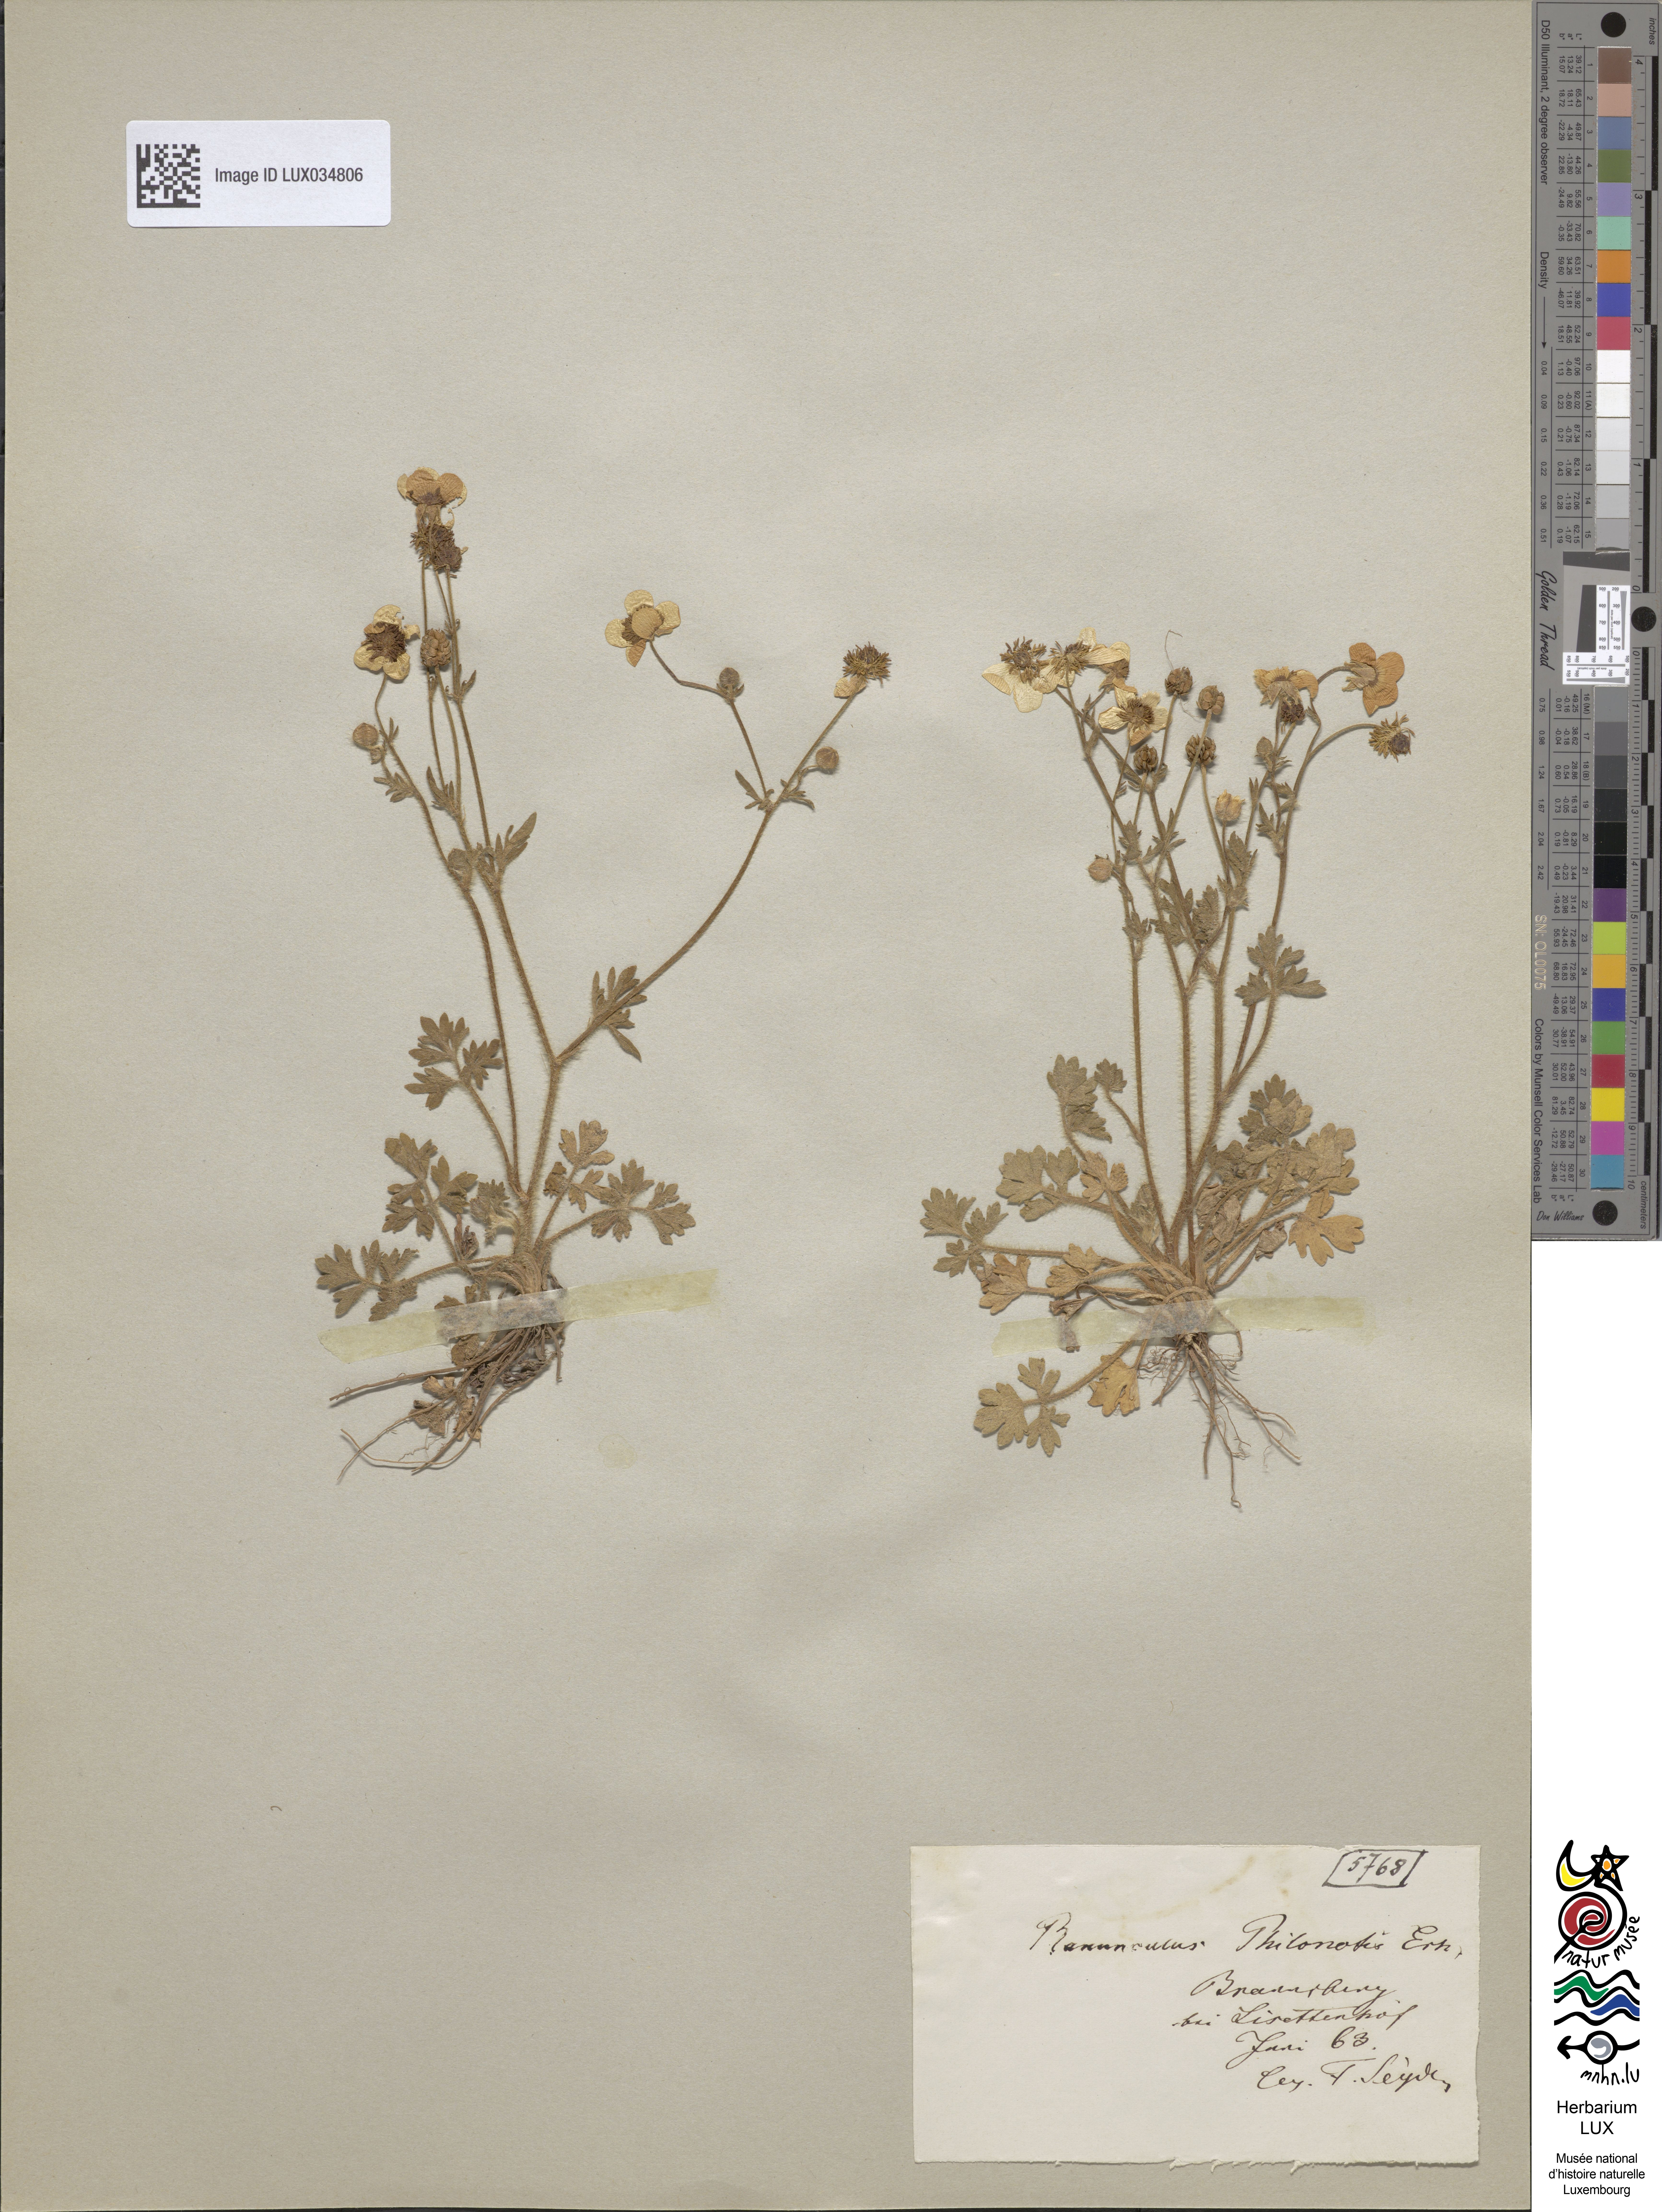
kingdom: Plantae
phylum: Tracheophyta
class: Magnoliopsida
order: Ranunculales
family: Ranunculaceae
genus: Ranunculus
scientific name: Ranunculus sardous
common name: Hairy buttercup
